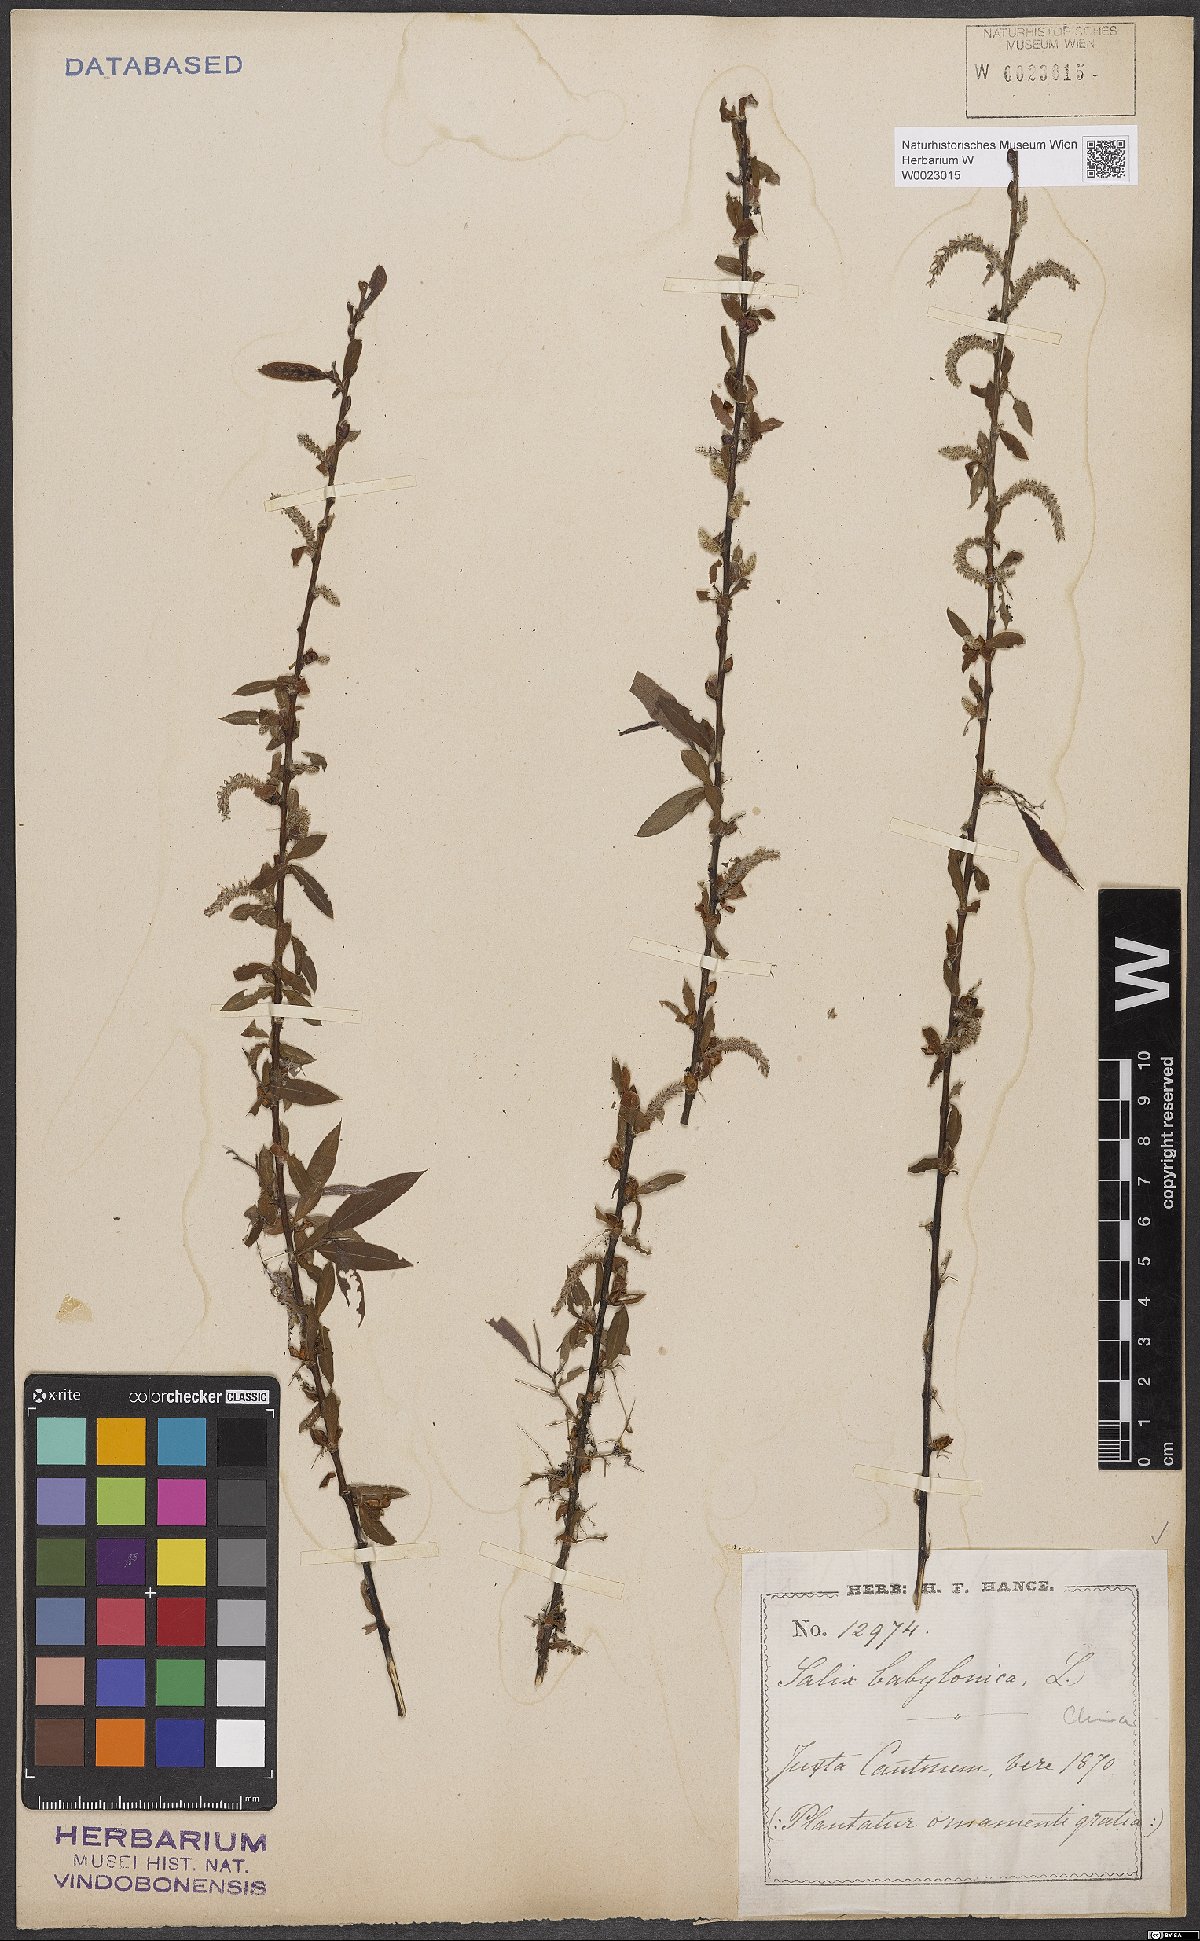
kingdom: Plantae
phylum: Tracheophyta
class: Magnoliopsida
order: Malpighiales
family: Salicaceae
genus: Salix
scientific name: Salix babylonica
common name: Weeping willow
